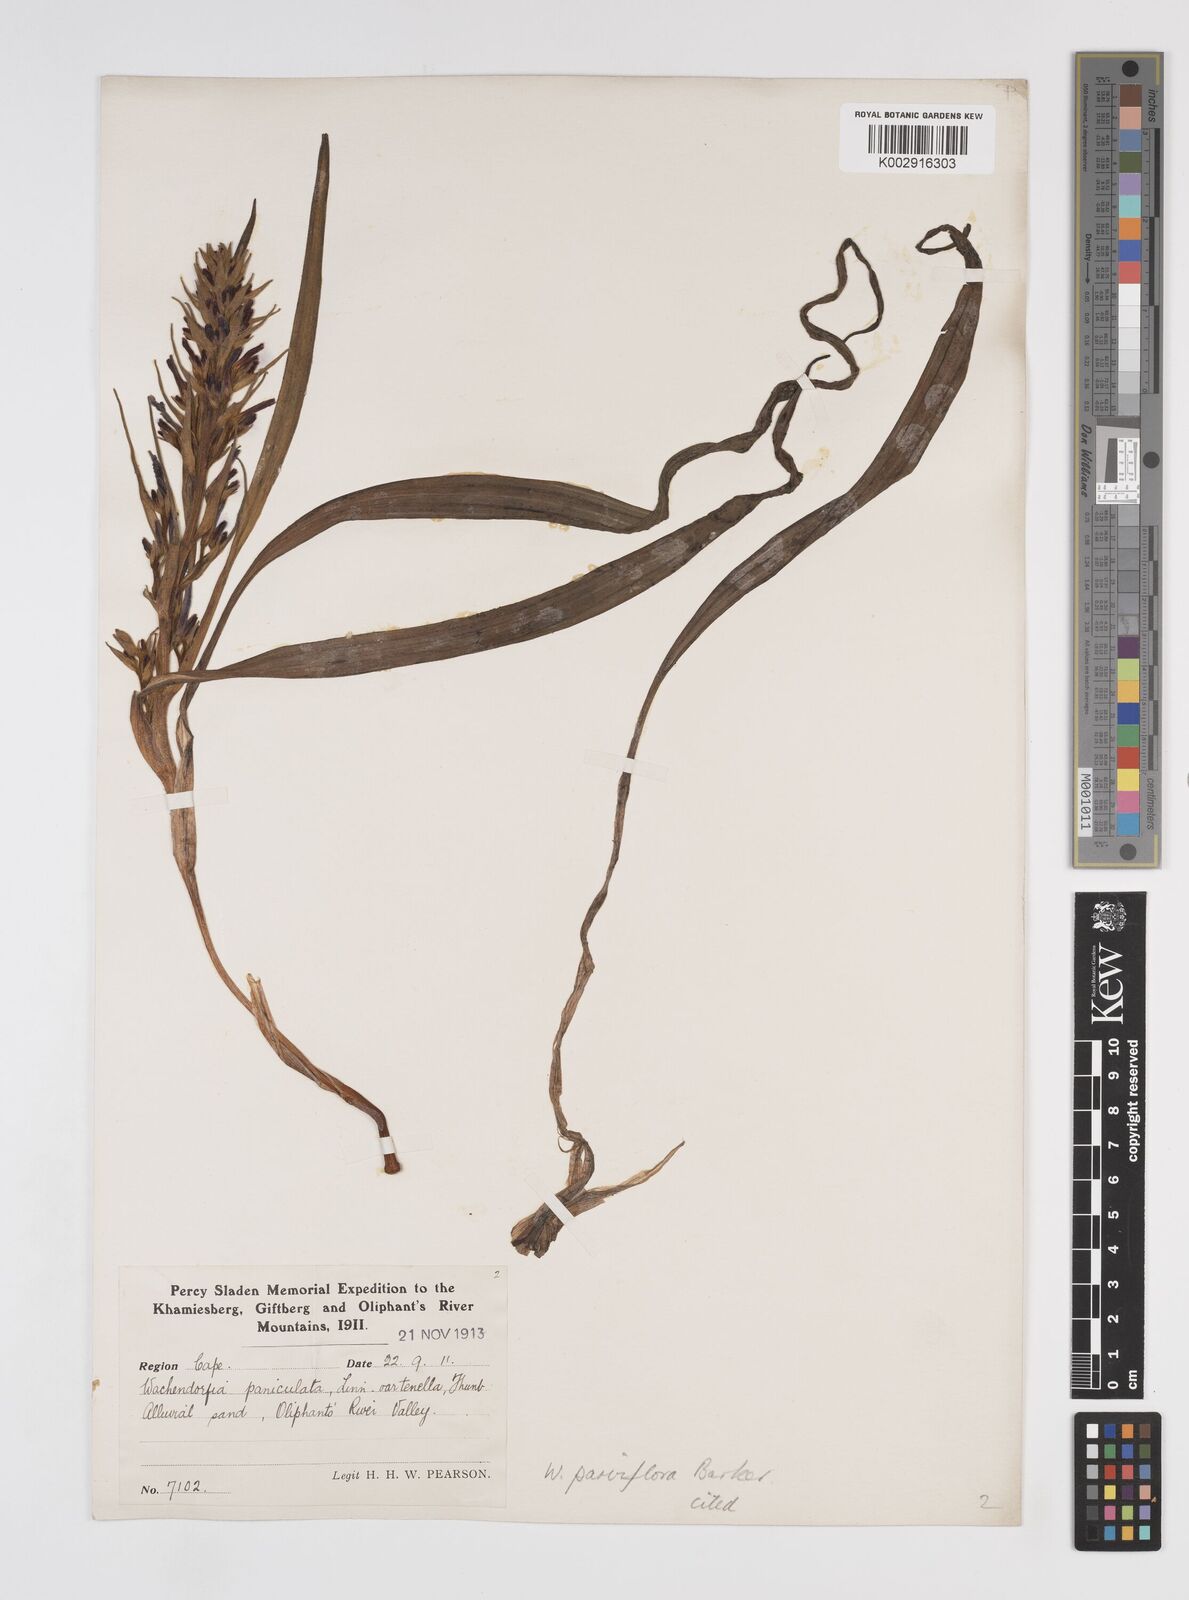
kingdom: Plantae
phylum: Tracheophyta
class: Liliopsida
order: Commelinales
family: Haemodoraceae
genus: Wachendorfia
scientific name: Wachendorfia multiflora
